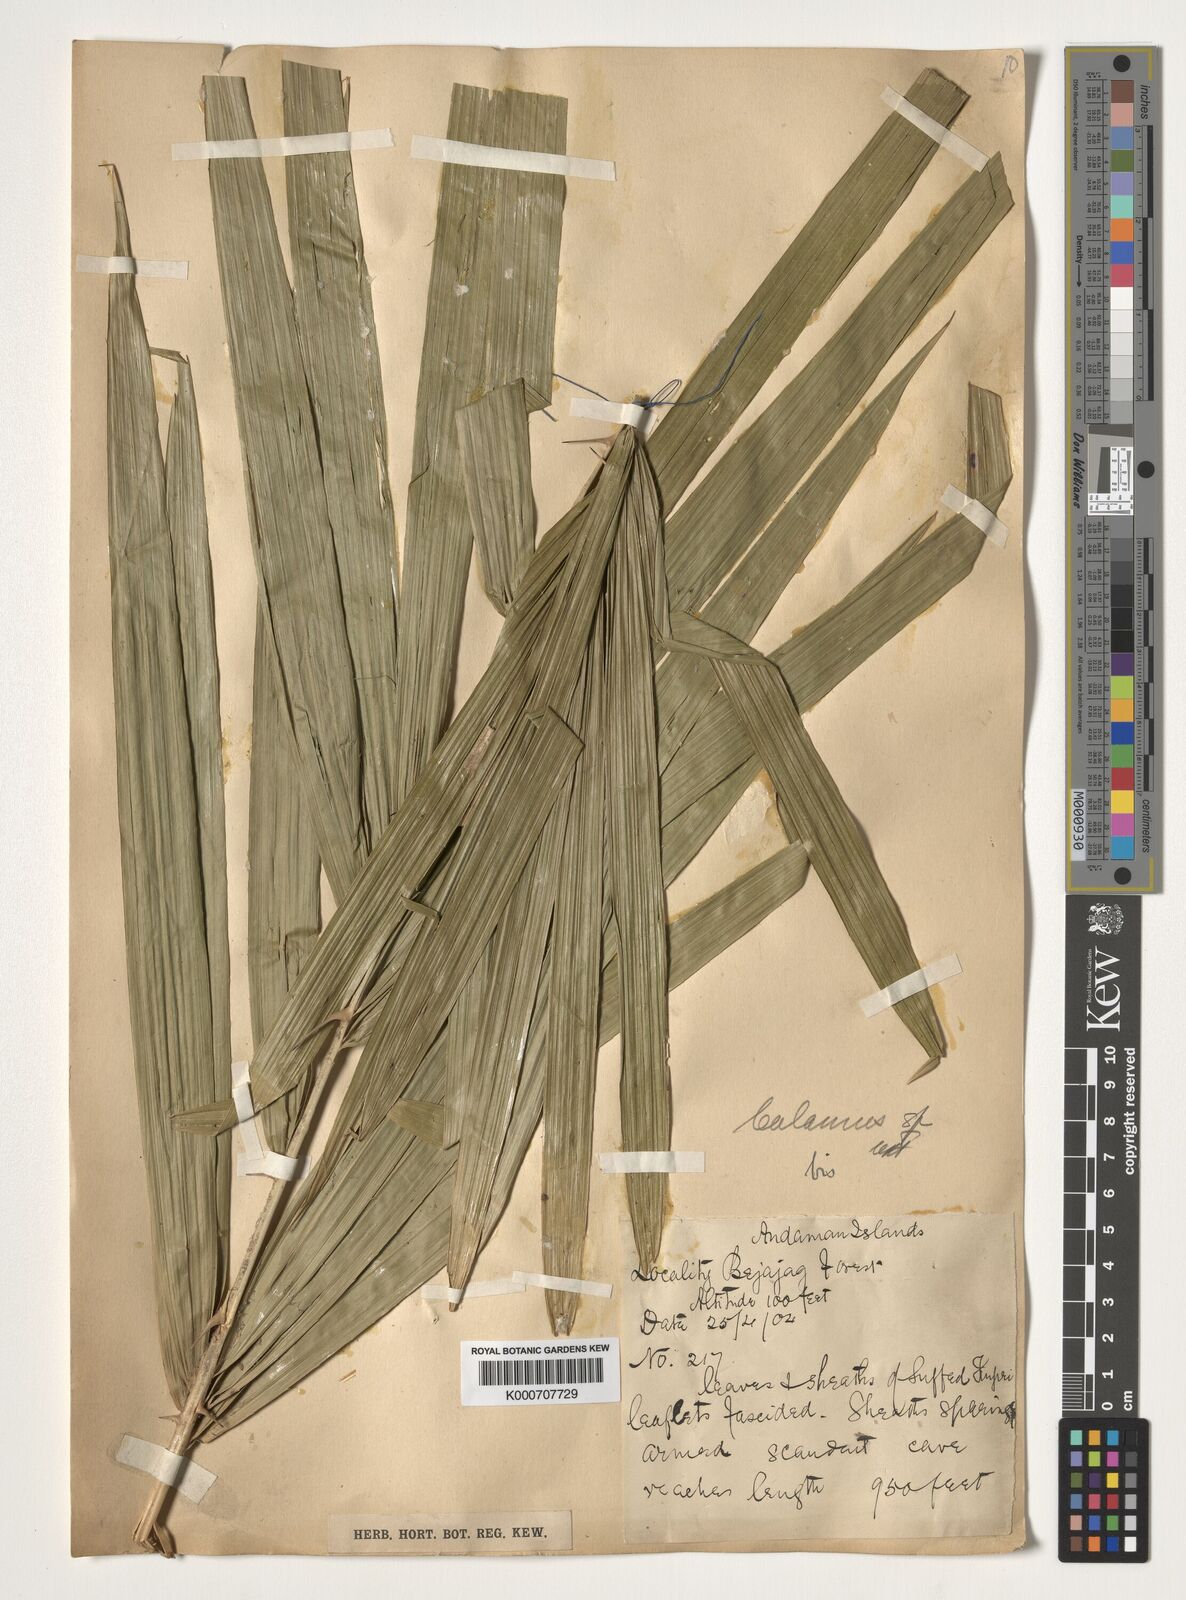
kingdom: Plantae
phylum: Tracheophyta
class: Liliopsida
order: Arecales
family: Arecaceae
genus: Calamus
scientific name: Calamus
